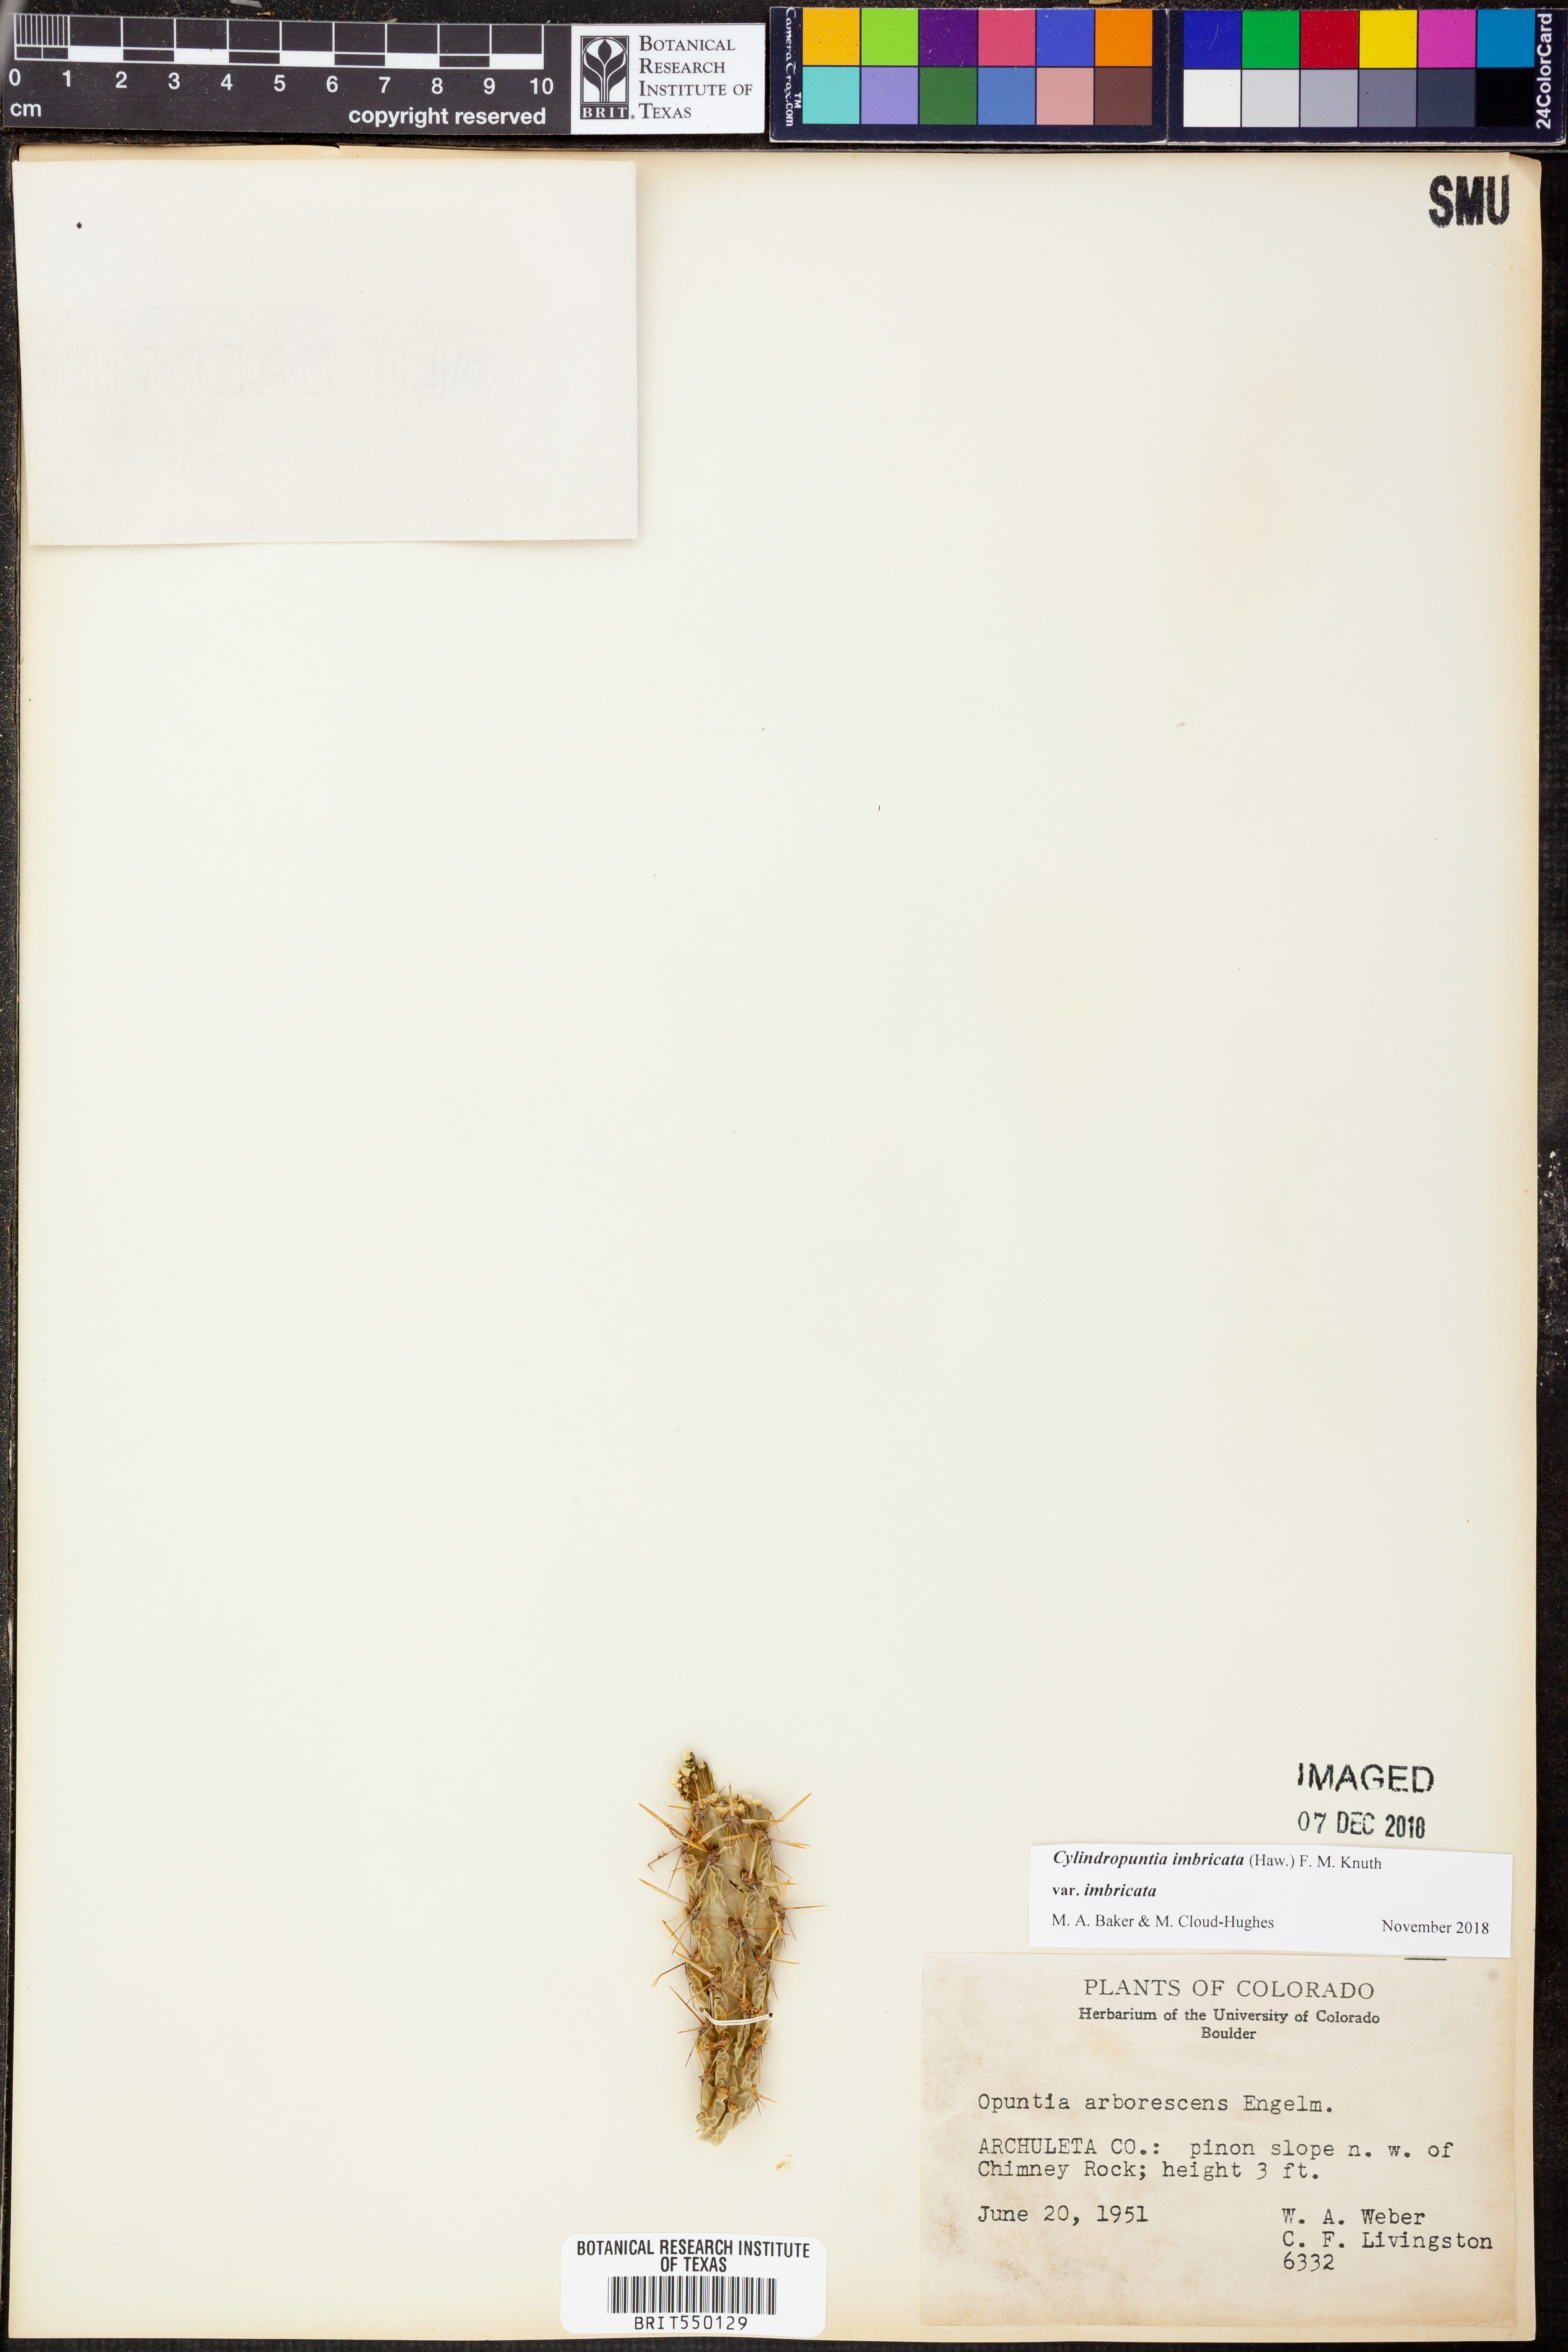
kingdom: Plantae
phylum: Tracheophyta
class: Magnoliopsida
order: Caryophyllales
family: Cactaceae
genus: Cylindropuntia
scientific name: Cylindropuntia imbricata
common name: Candelabrum cactus
